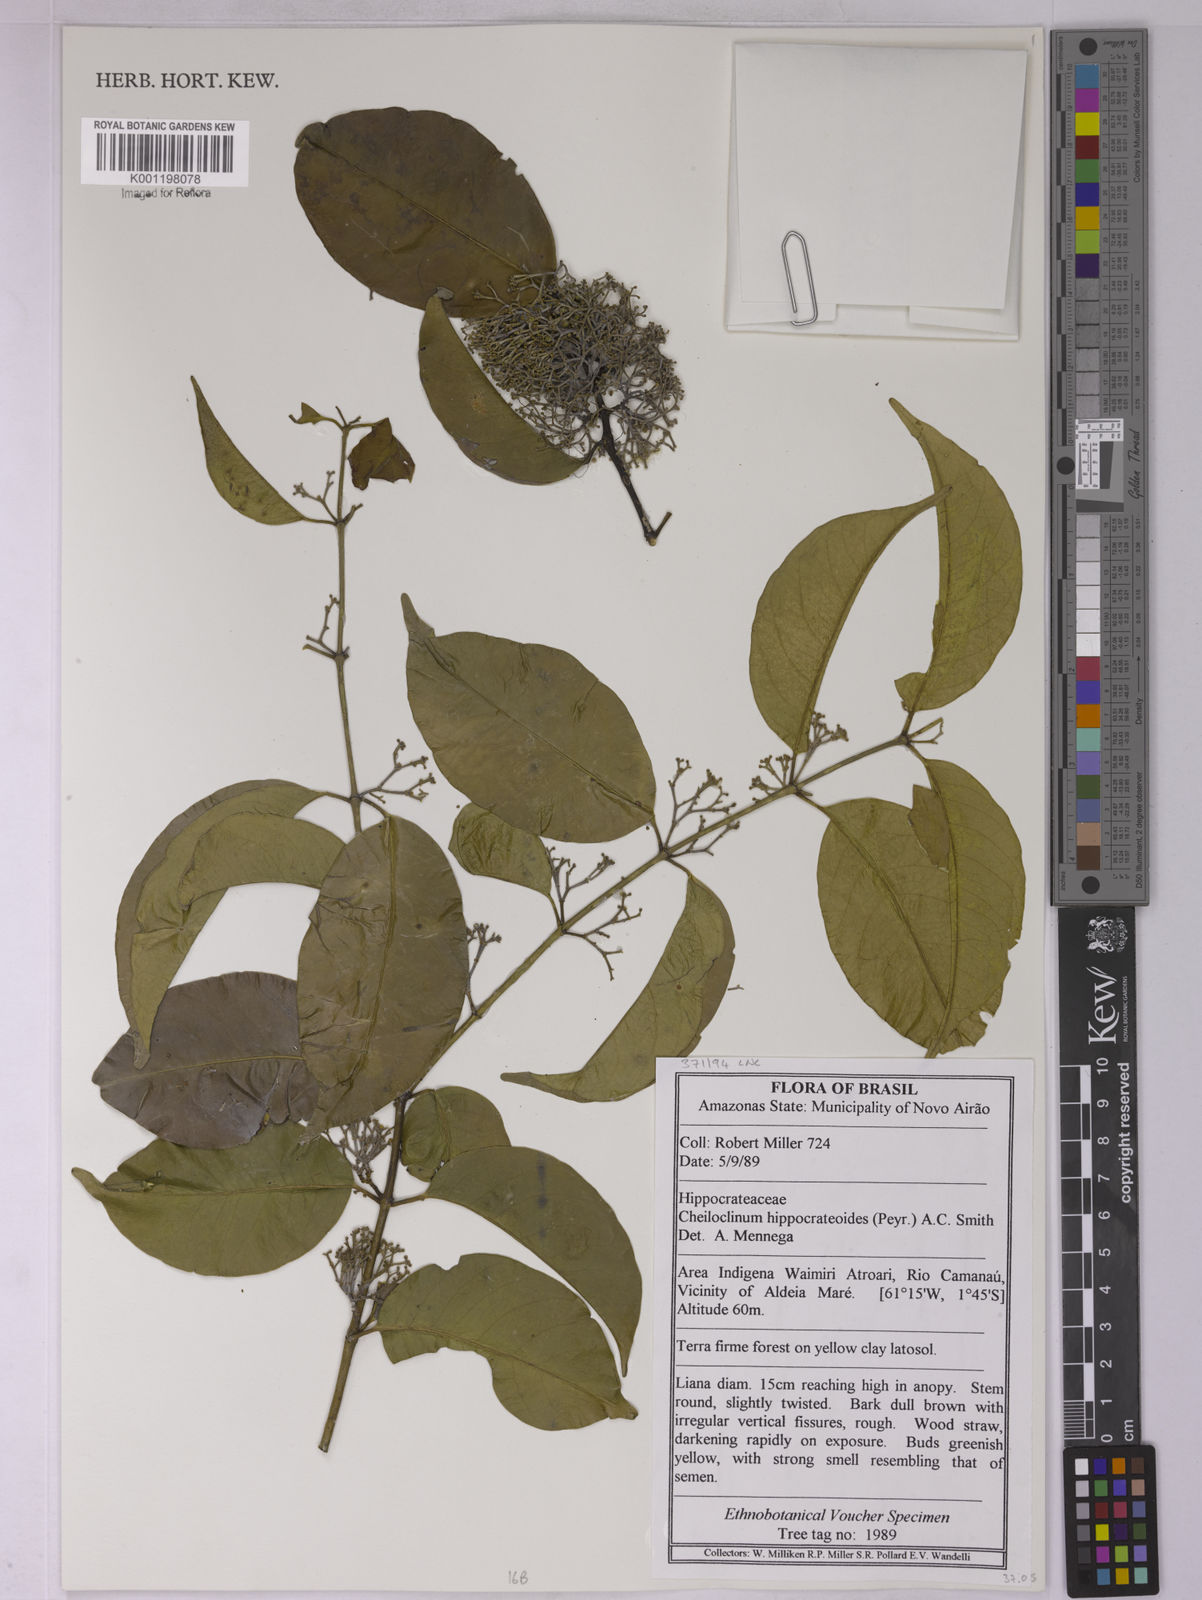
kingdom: Plantae
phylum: Tracheophyta
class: Magnoliopsida
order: Celastrales
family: Celastraceae
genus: Cheiloclinium
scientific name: Cheiloclinium hippocrateoides
